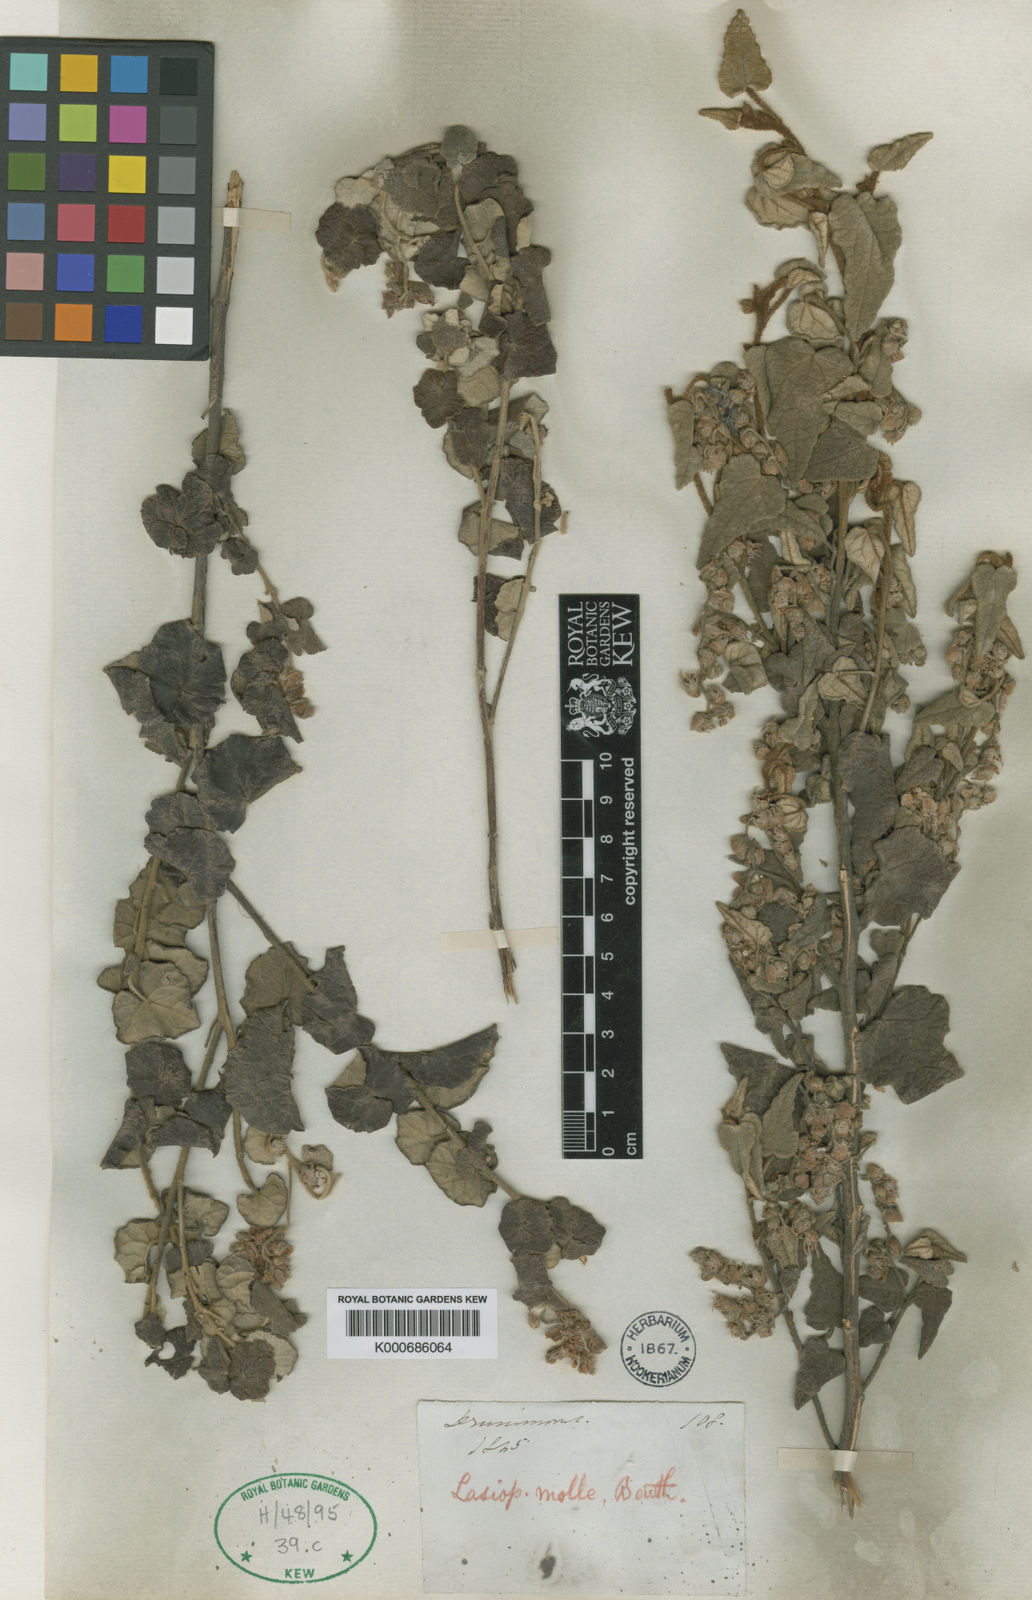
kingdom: Plantae
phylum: Tracheophyta
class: Magnoliopsida
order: Malvales
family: Malvaceae
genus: Lasiopetalum
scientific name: Lasiopetalum molle
